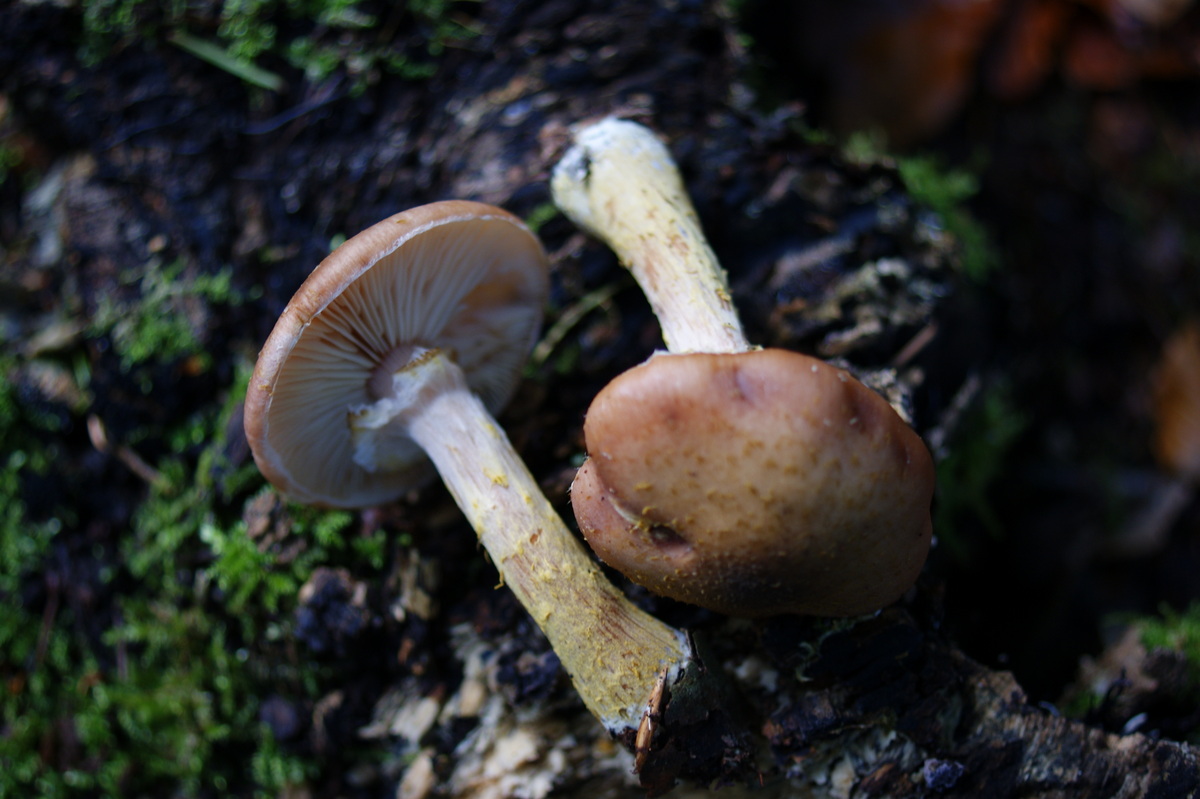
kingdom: Fungi
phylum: Basidiomycota
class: Agaricomycetes
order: Agaricales
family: Physalacriaceae
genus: Armillaria
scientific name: Armillaria lutea
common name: køllestokket honningsvamp
